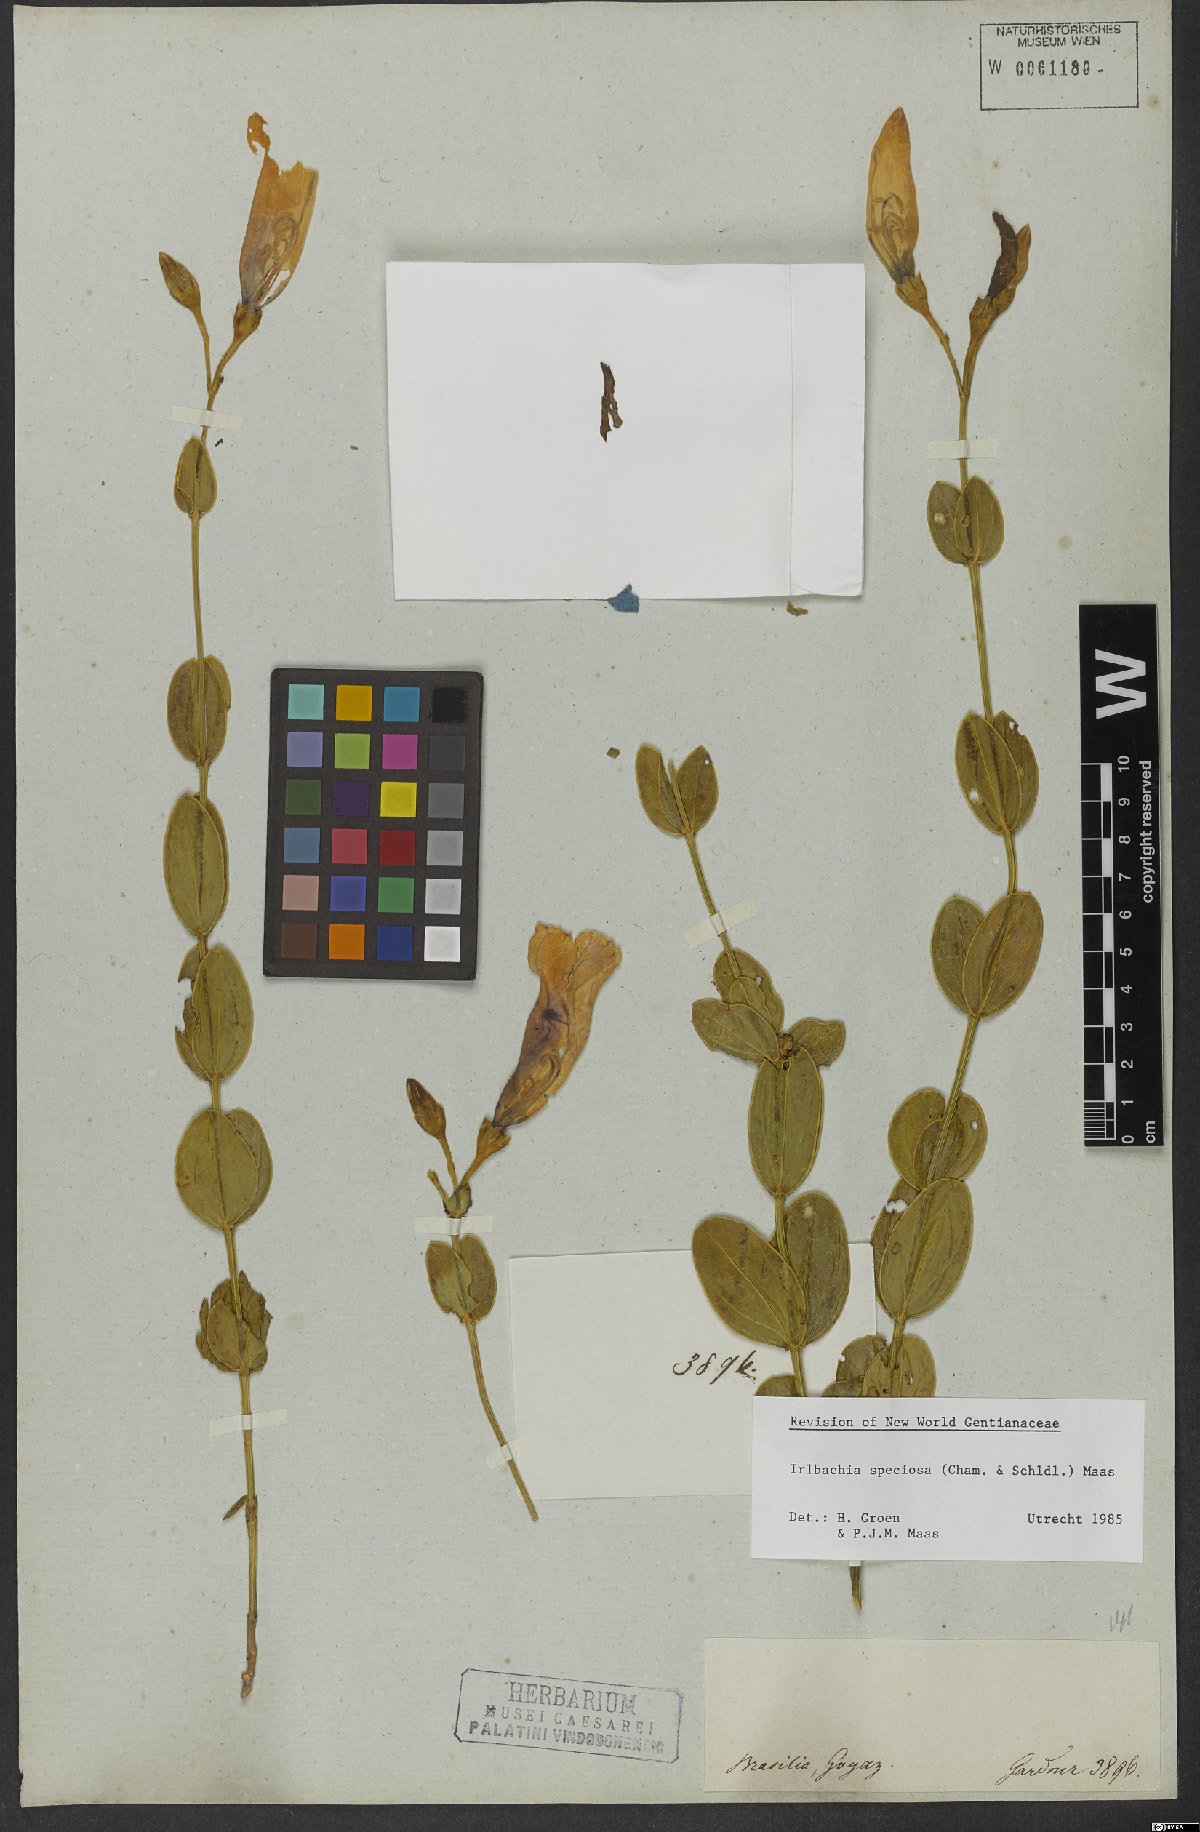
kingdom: Plantae
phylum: Tracheophyta
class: Magnoliopsida
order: Gentianales
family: Gentianaceae
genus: Calolisianthus
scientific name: Calolisianthus speciosus
